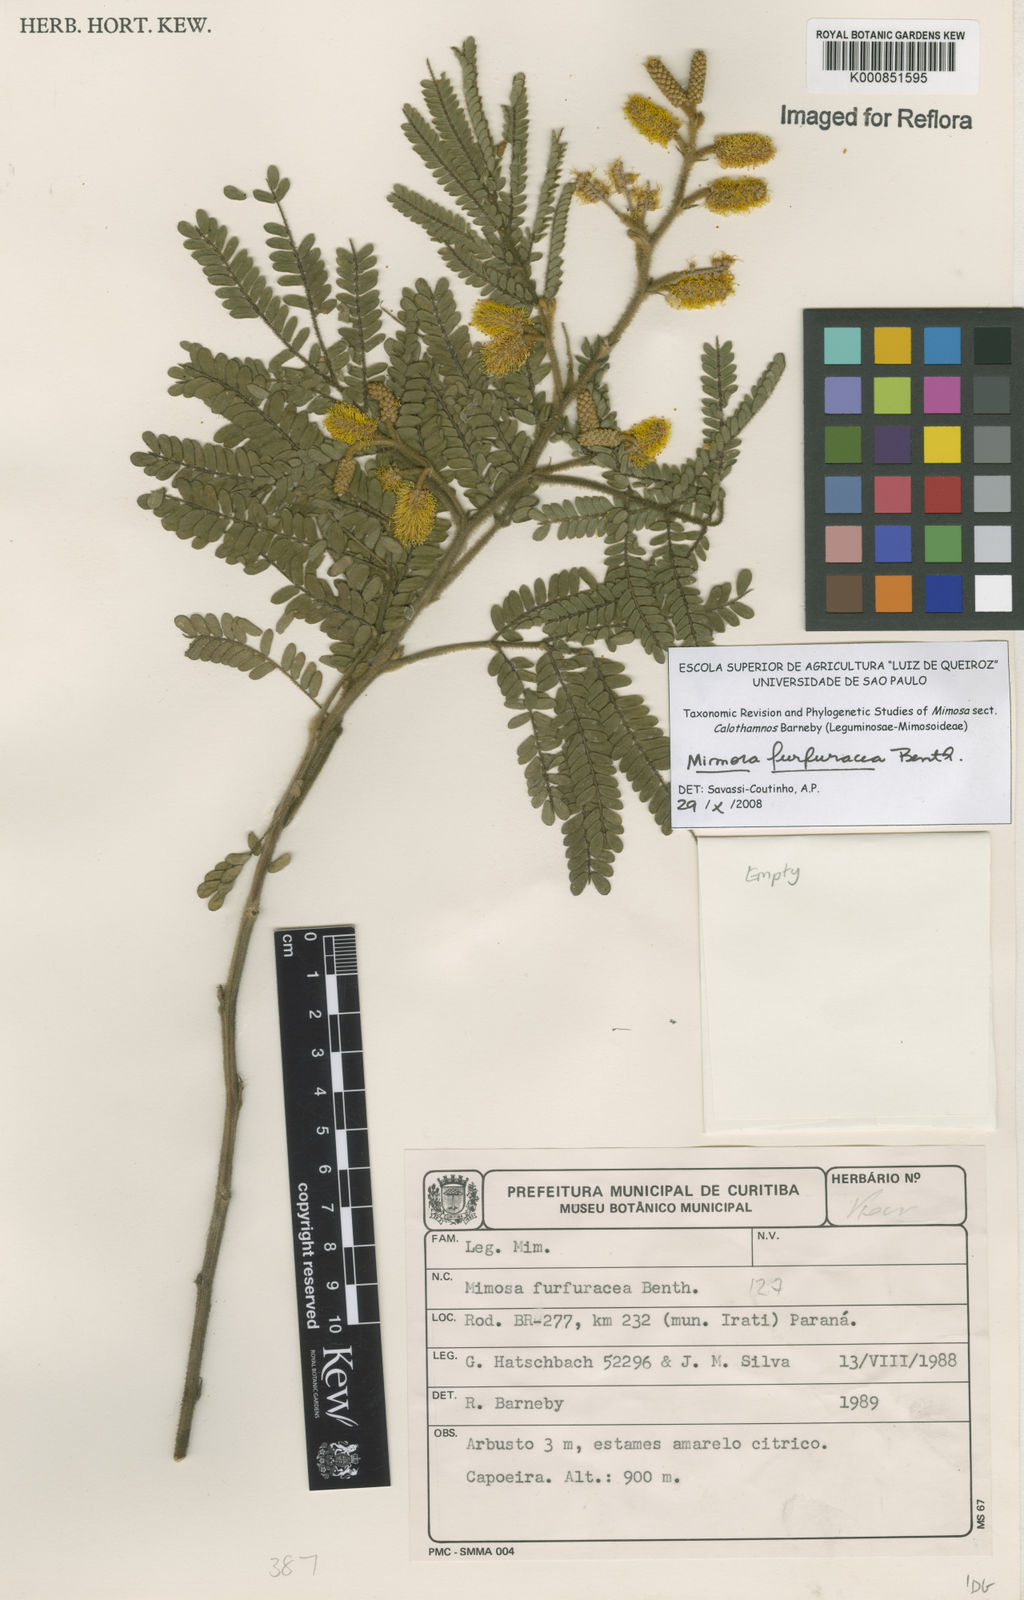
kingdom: Plantae
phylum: Tracheophyta
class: Magnoliopsida
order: Fabales
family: Fabaceae
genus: Mimosa
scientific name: Mimosa furfuracea
